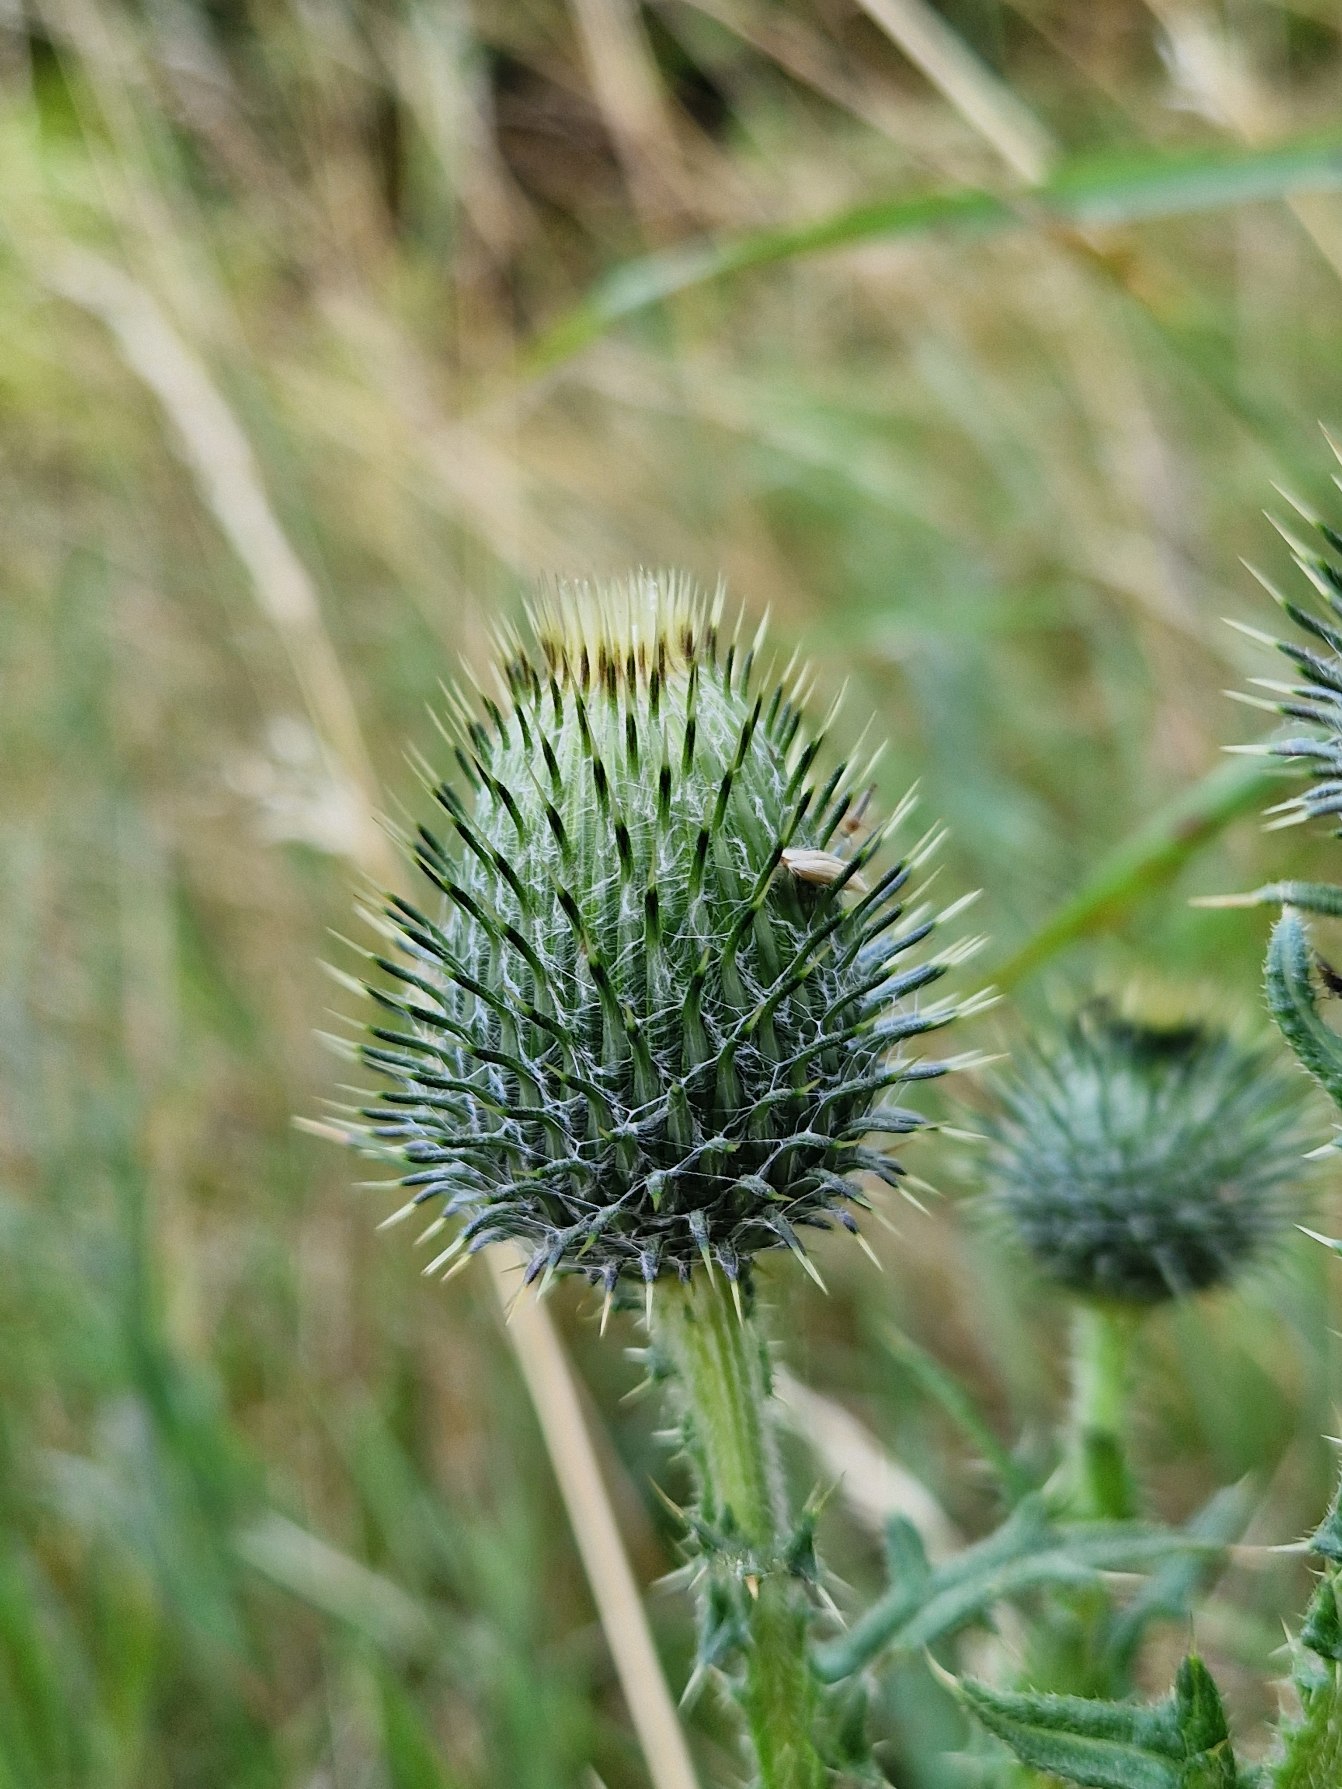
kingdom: Plantae
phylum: Tracheophyta
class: Magnoliopsida
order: Asterales
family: Asteraceae
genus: Cirsium
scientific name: Cirsium vulgare
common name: Horse-tidsel
